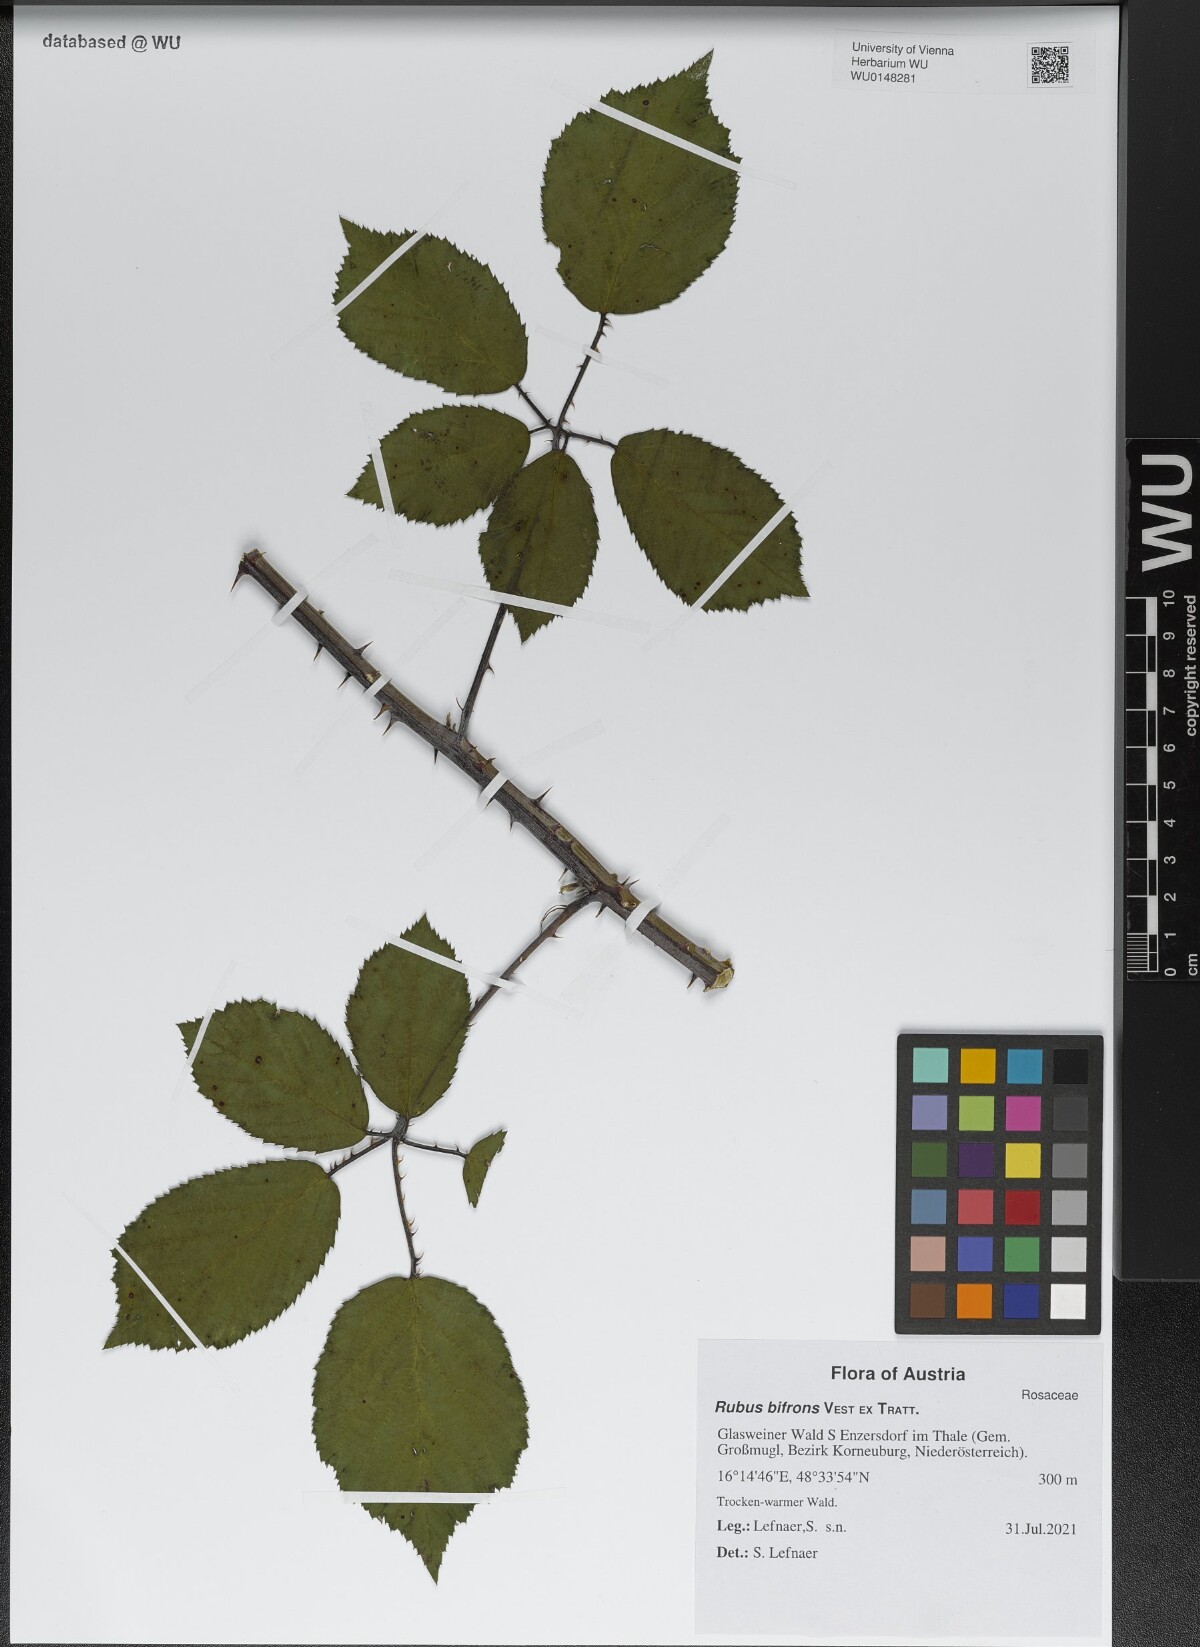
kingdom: Plantae
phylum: Tracheophyta
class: Magnoliopsida
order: Rosales
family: Rosaceae
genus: Rubus
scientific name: Rubus bifrons
